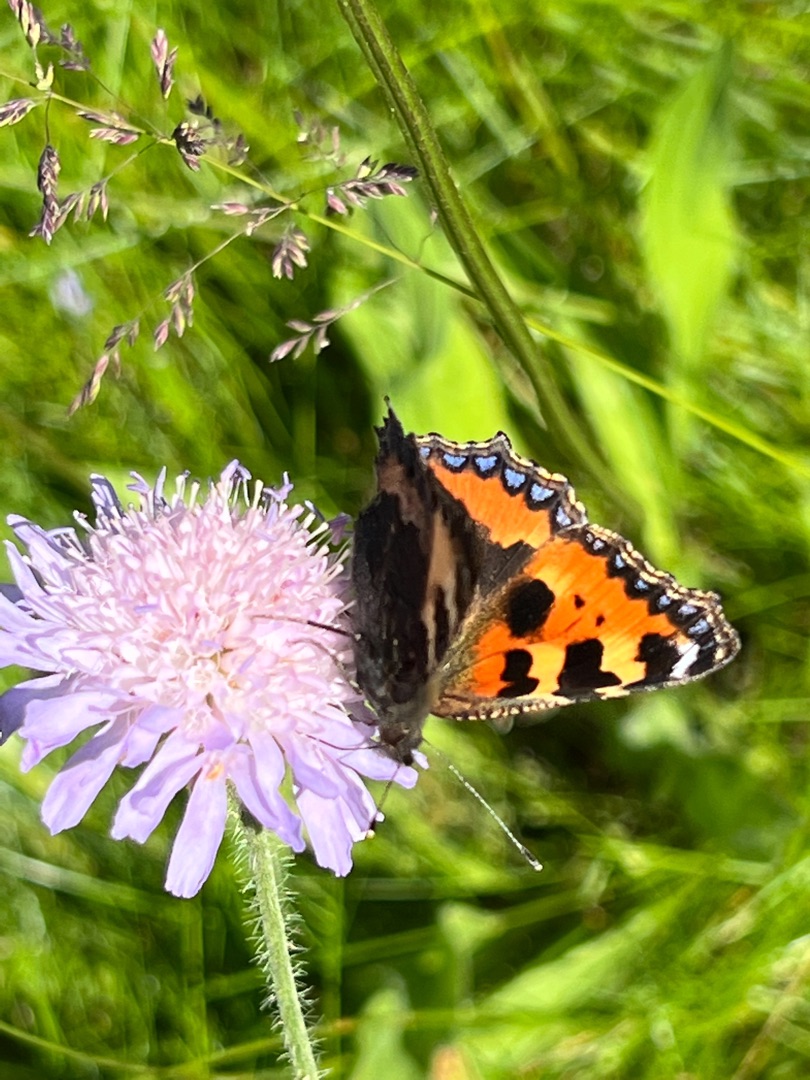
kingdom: Animalia
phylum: Arthropoda
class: Insecta
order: Lepidoptera
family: Nymphalidae
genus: Aglais
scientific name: Aglais urticae
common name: Nældens takvinge
